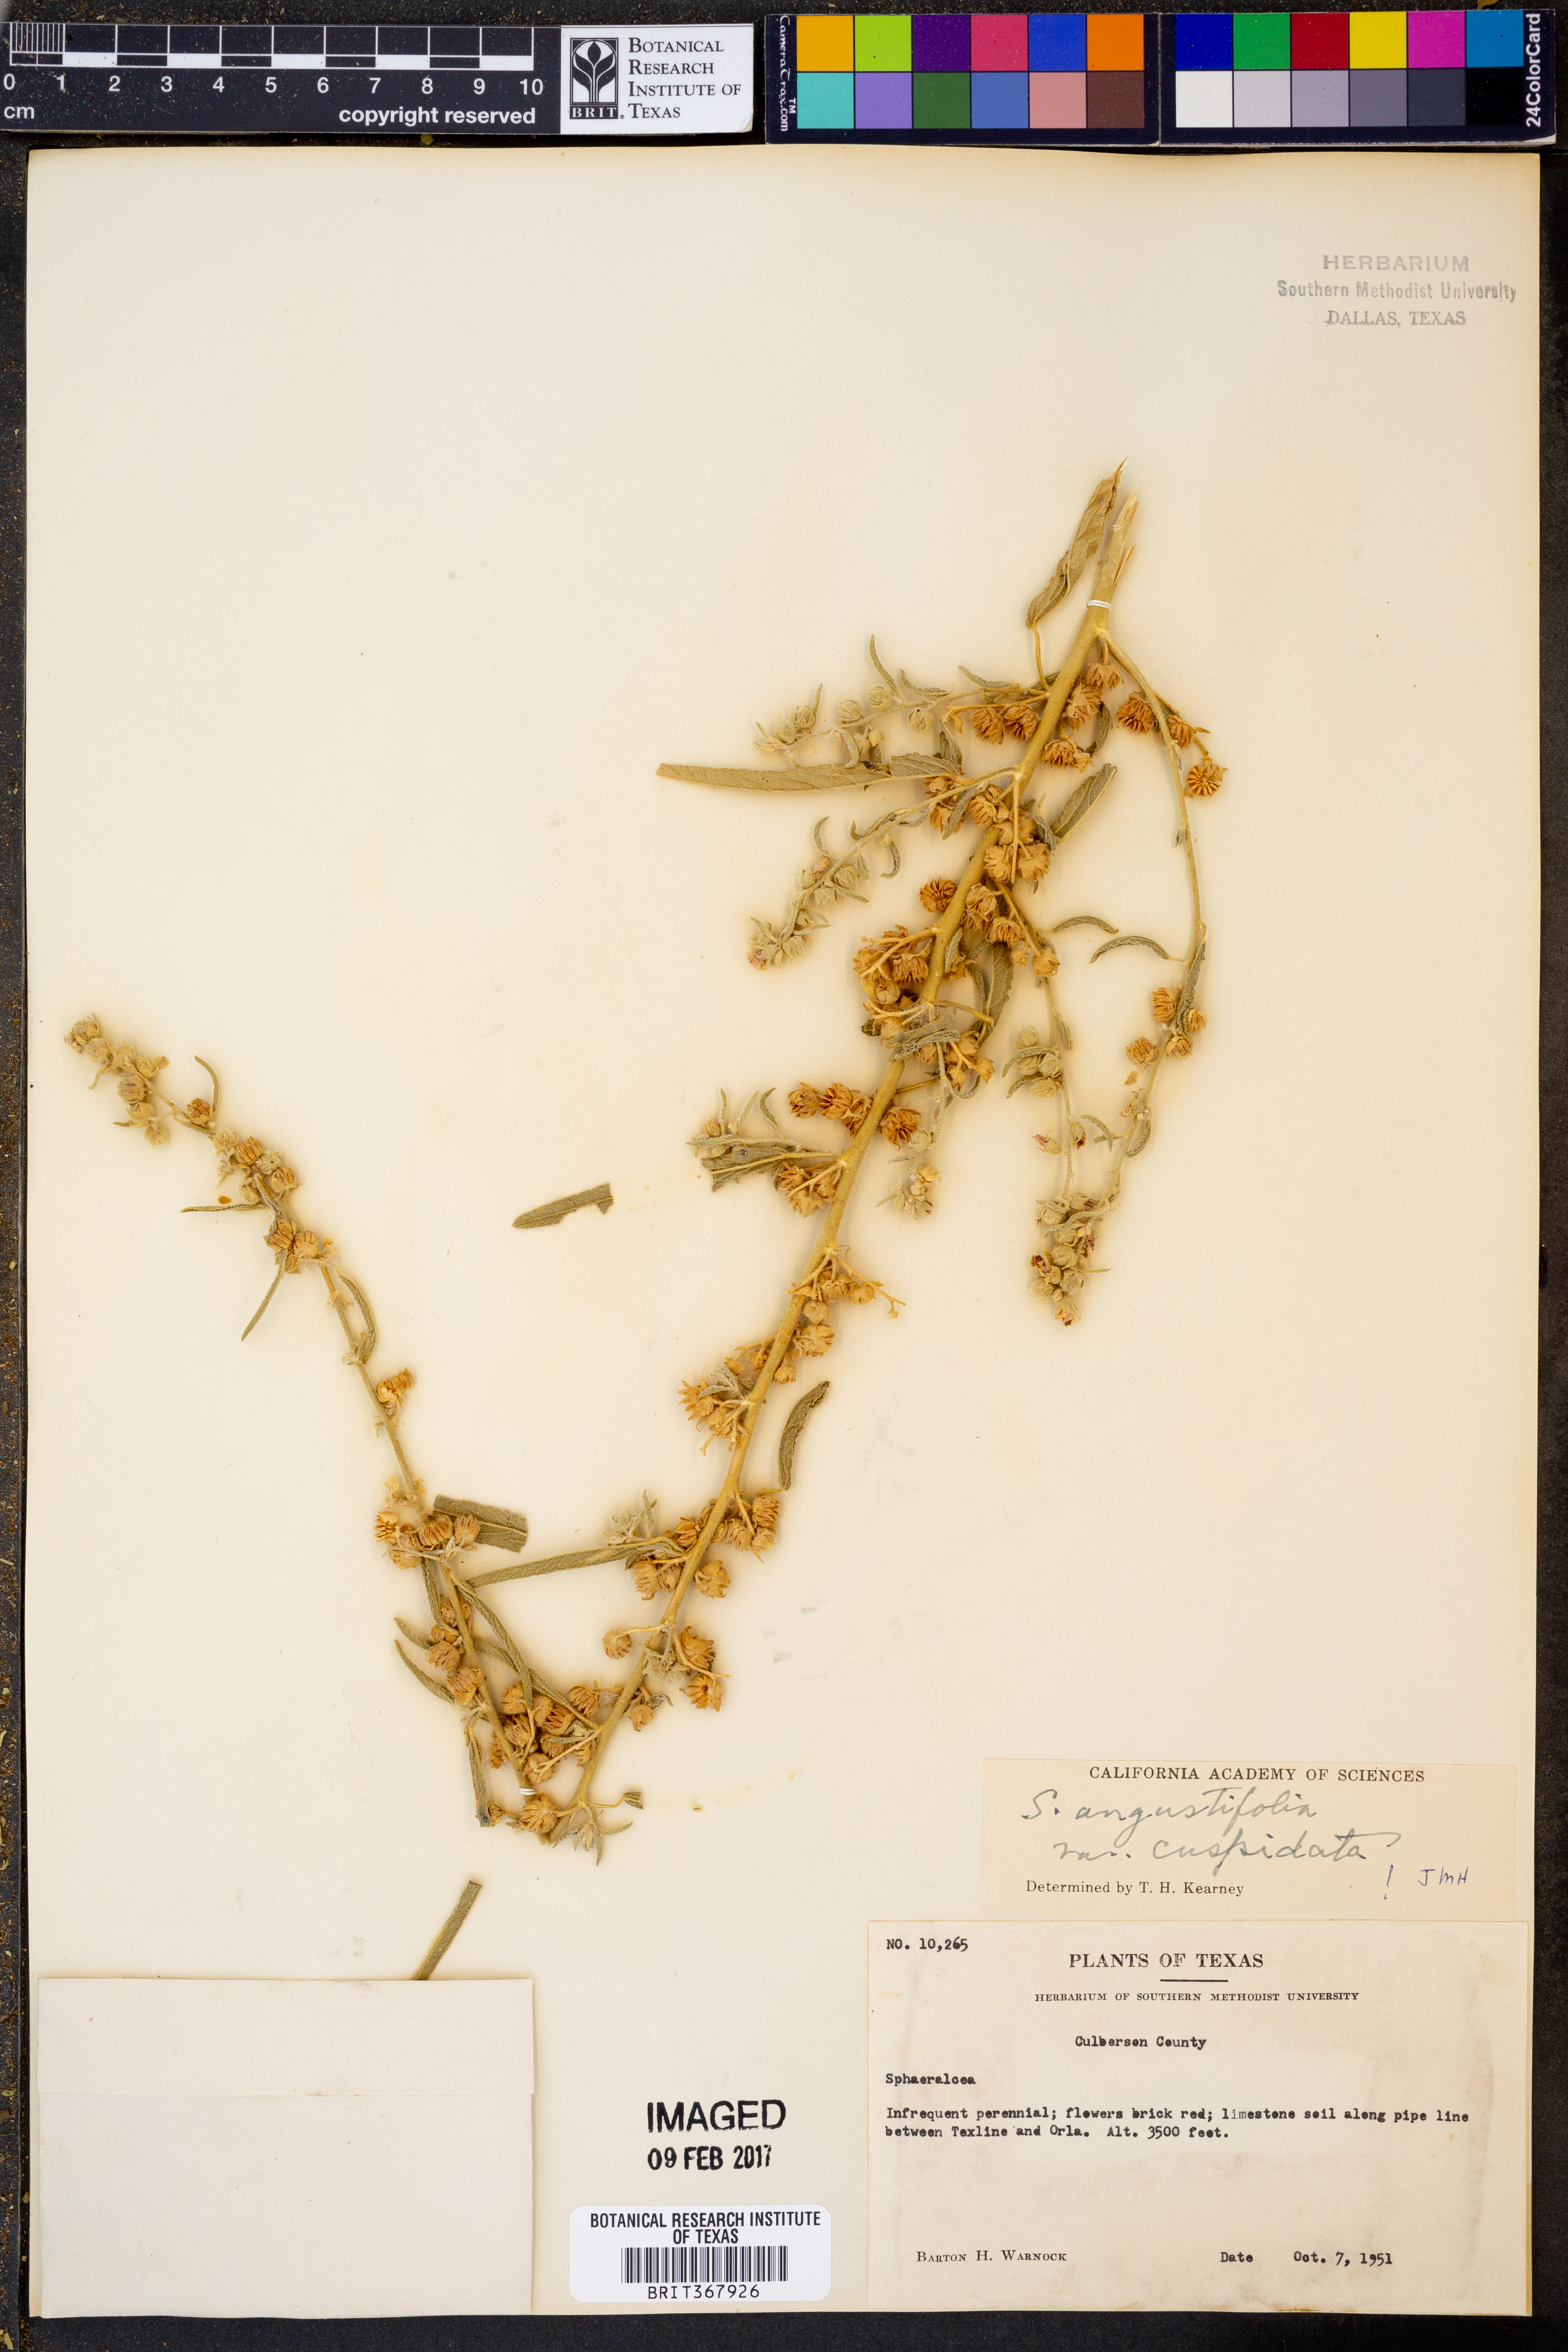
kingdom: Plantae
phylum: Tracheophyta
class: Magnoliopsida
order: Malvales
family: Malvaceae
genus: Sphaeralcea
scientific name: Sphaeralcea angustifolia
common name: Copper globe-mallow
